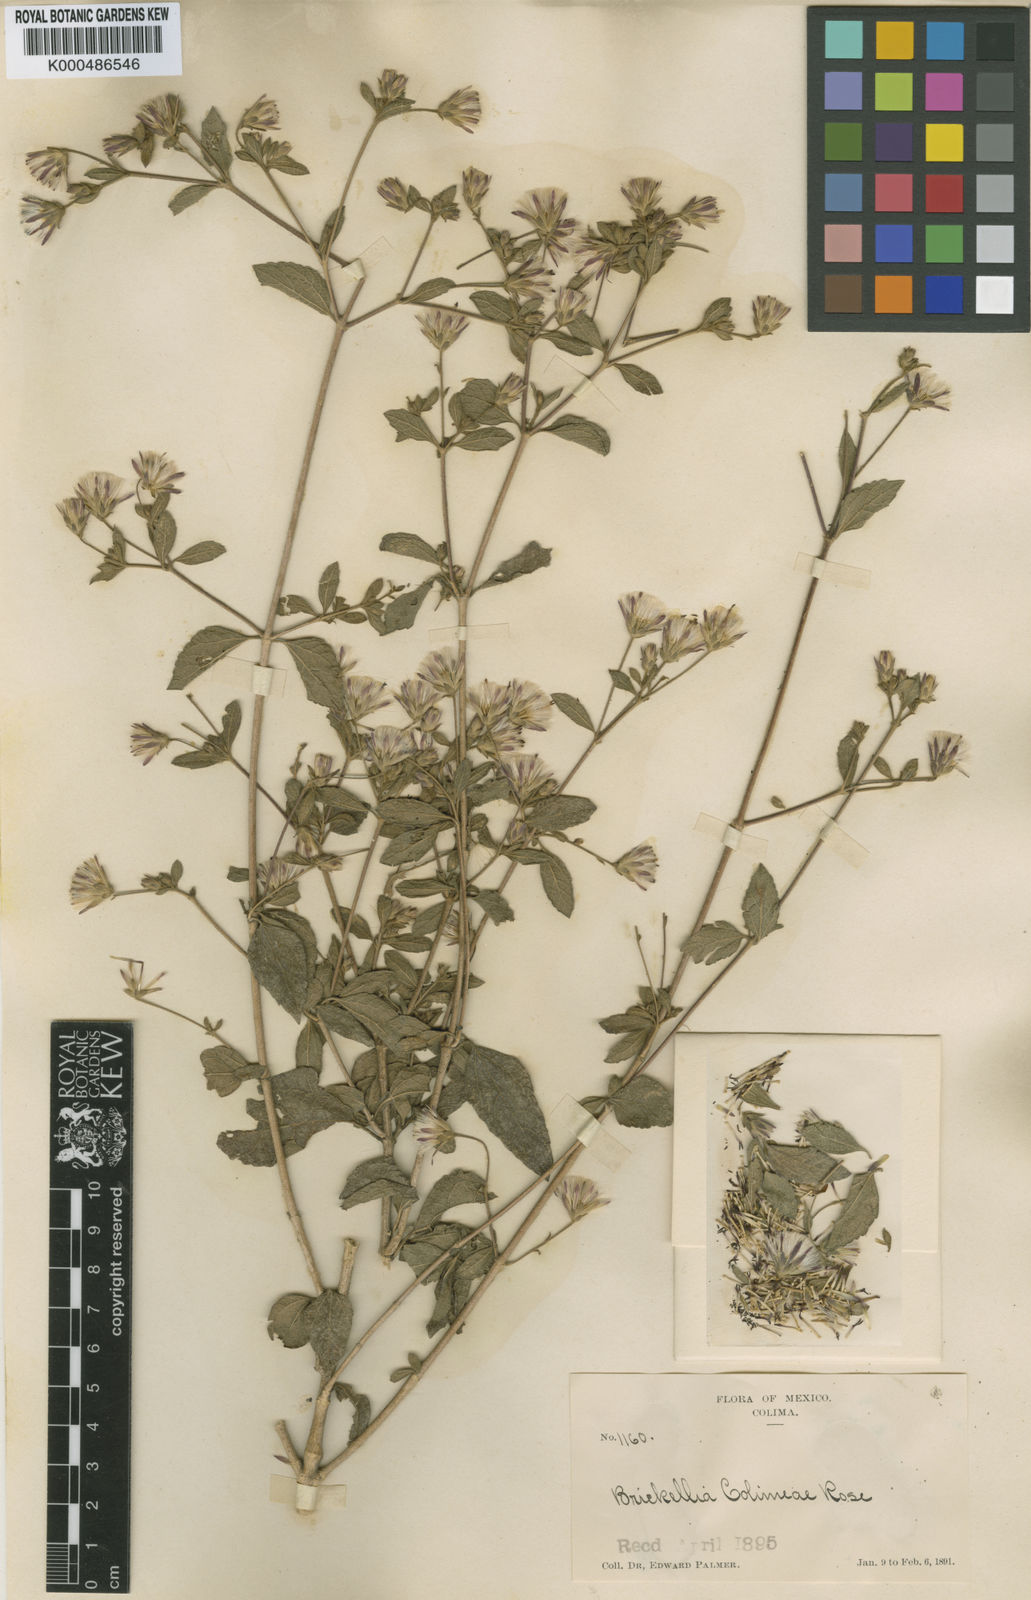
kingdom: Plantae
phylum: Tracheophyta
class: Magnoliopsida
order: Asterales
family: Asteraceae
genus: Brickellia
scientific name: Brickellia paniculata
